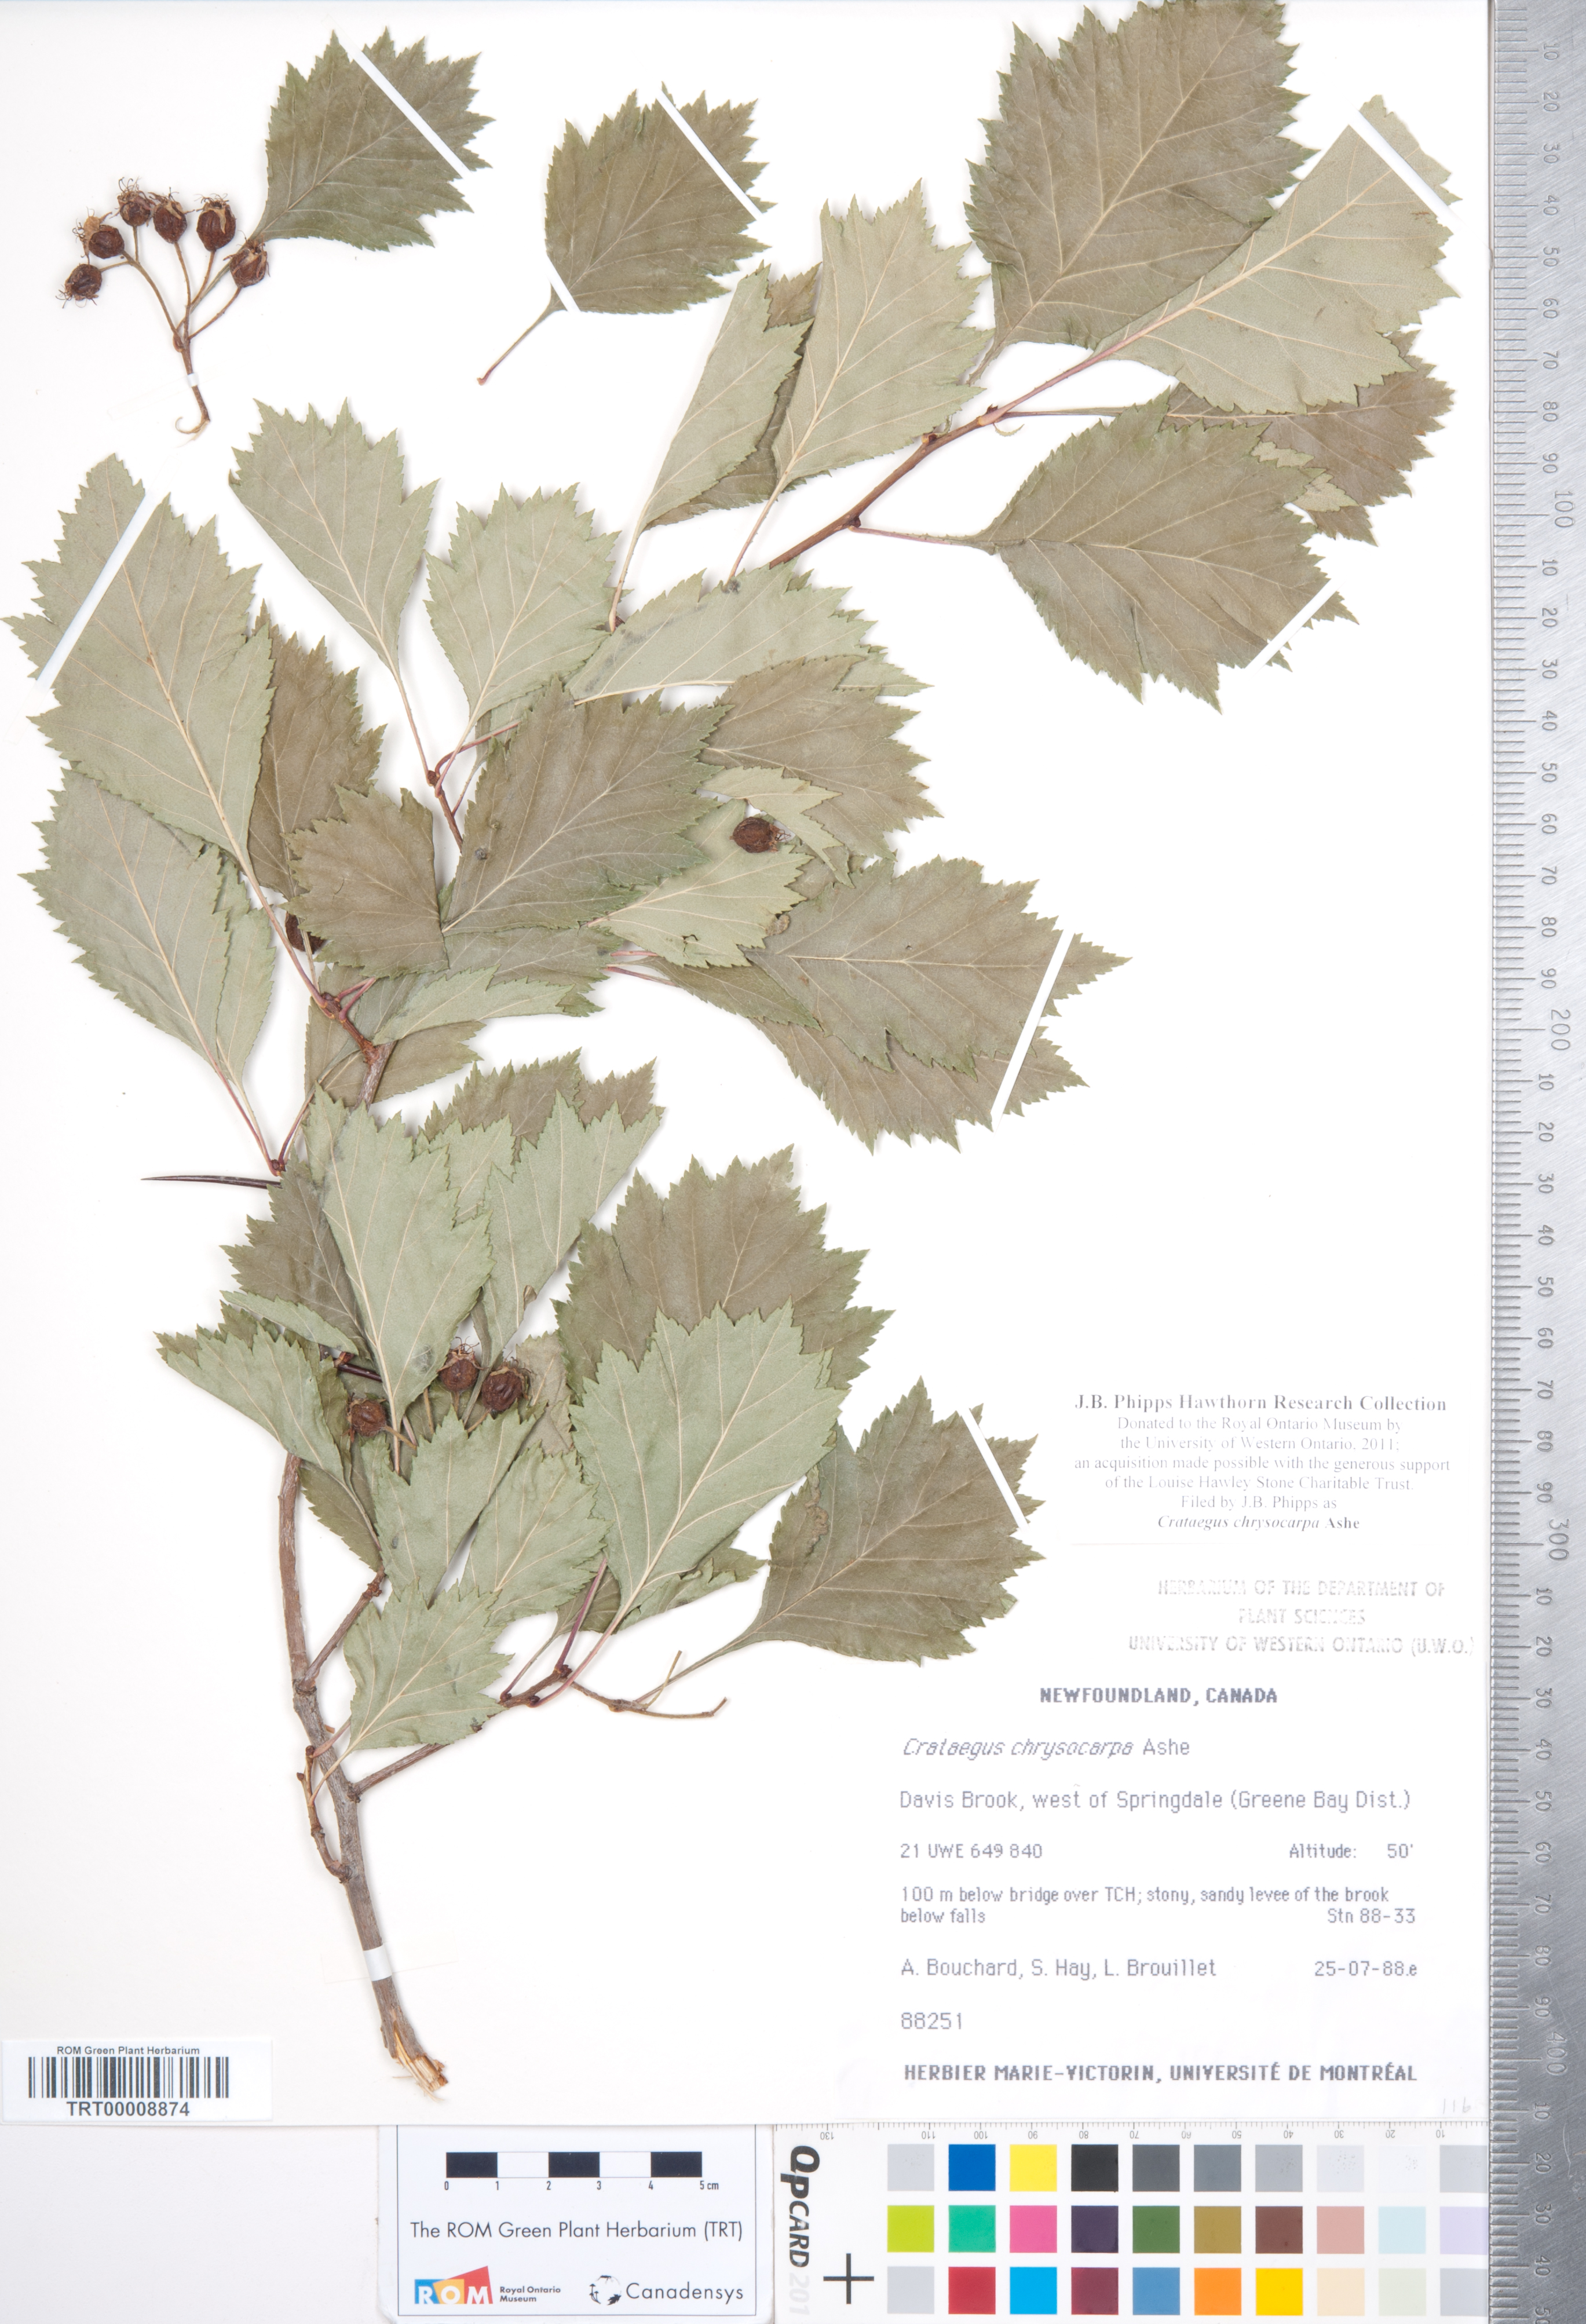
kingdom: Plantae
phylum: Tracheophyta
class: Magnoliopsida
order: Rosales
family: Rosaceae
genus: Crataegus
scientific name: Crataegus chrysocarpa
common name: Fire-berry hawthorn
